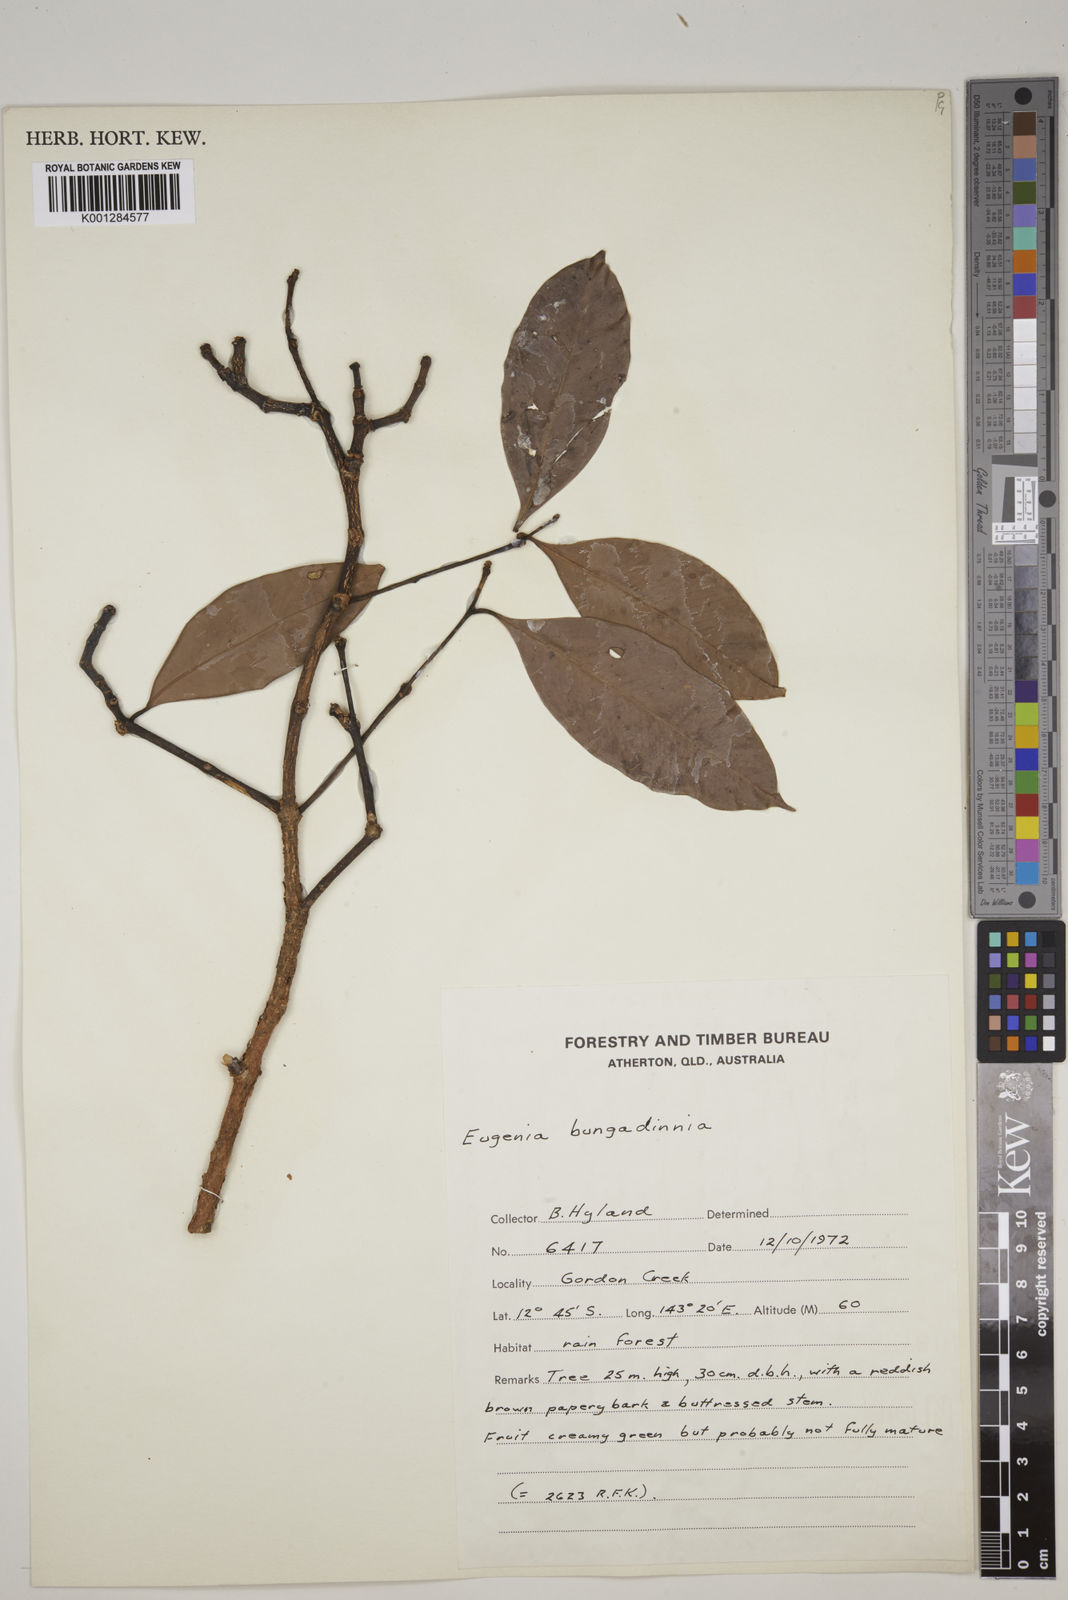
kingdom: Plantae
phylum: Tracheophyta
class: Magnoliopsida
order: Myrtales
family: Myrtaceae
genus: Syzygium
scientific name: Syzygium bungadinnia
